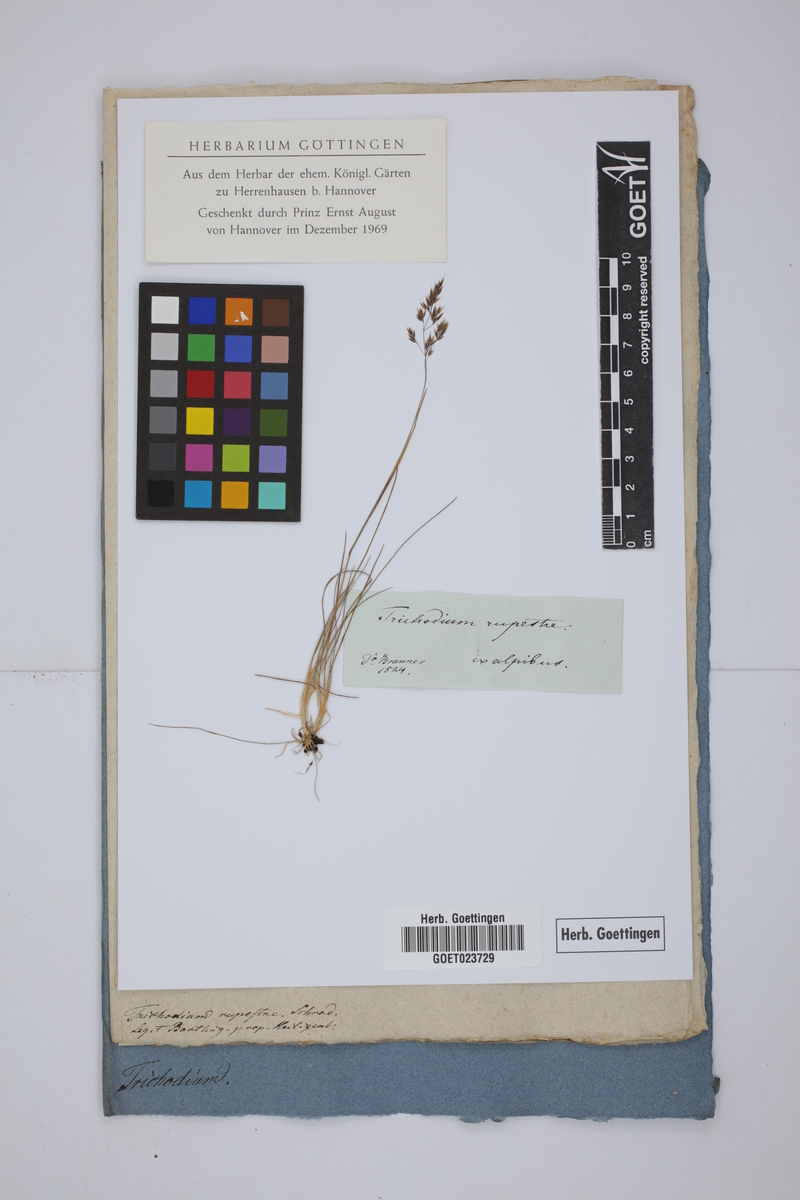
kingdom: Plantae
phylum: Tracheophyta
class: Liliopsida
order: Poales
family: Poaceae
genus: Alpagrostis
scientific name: Alpagrostis alpina
